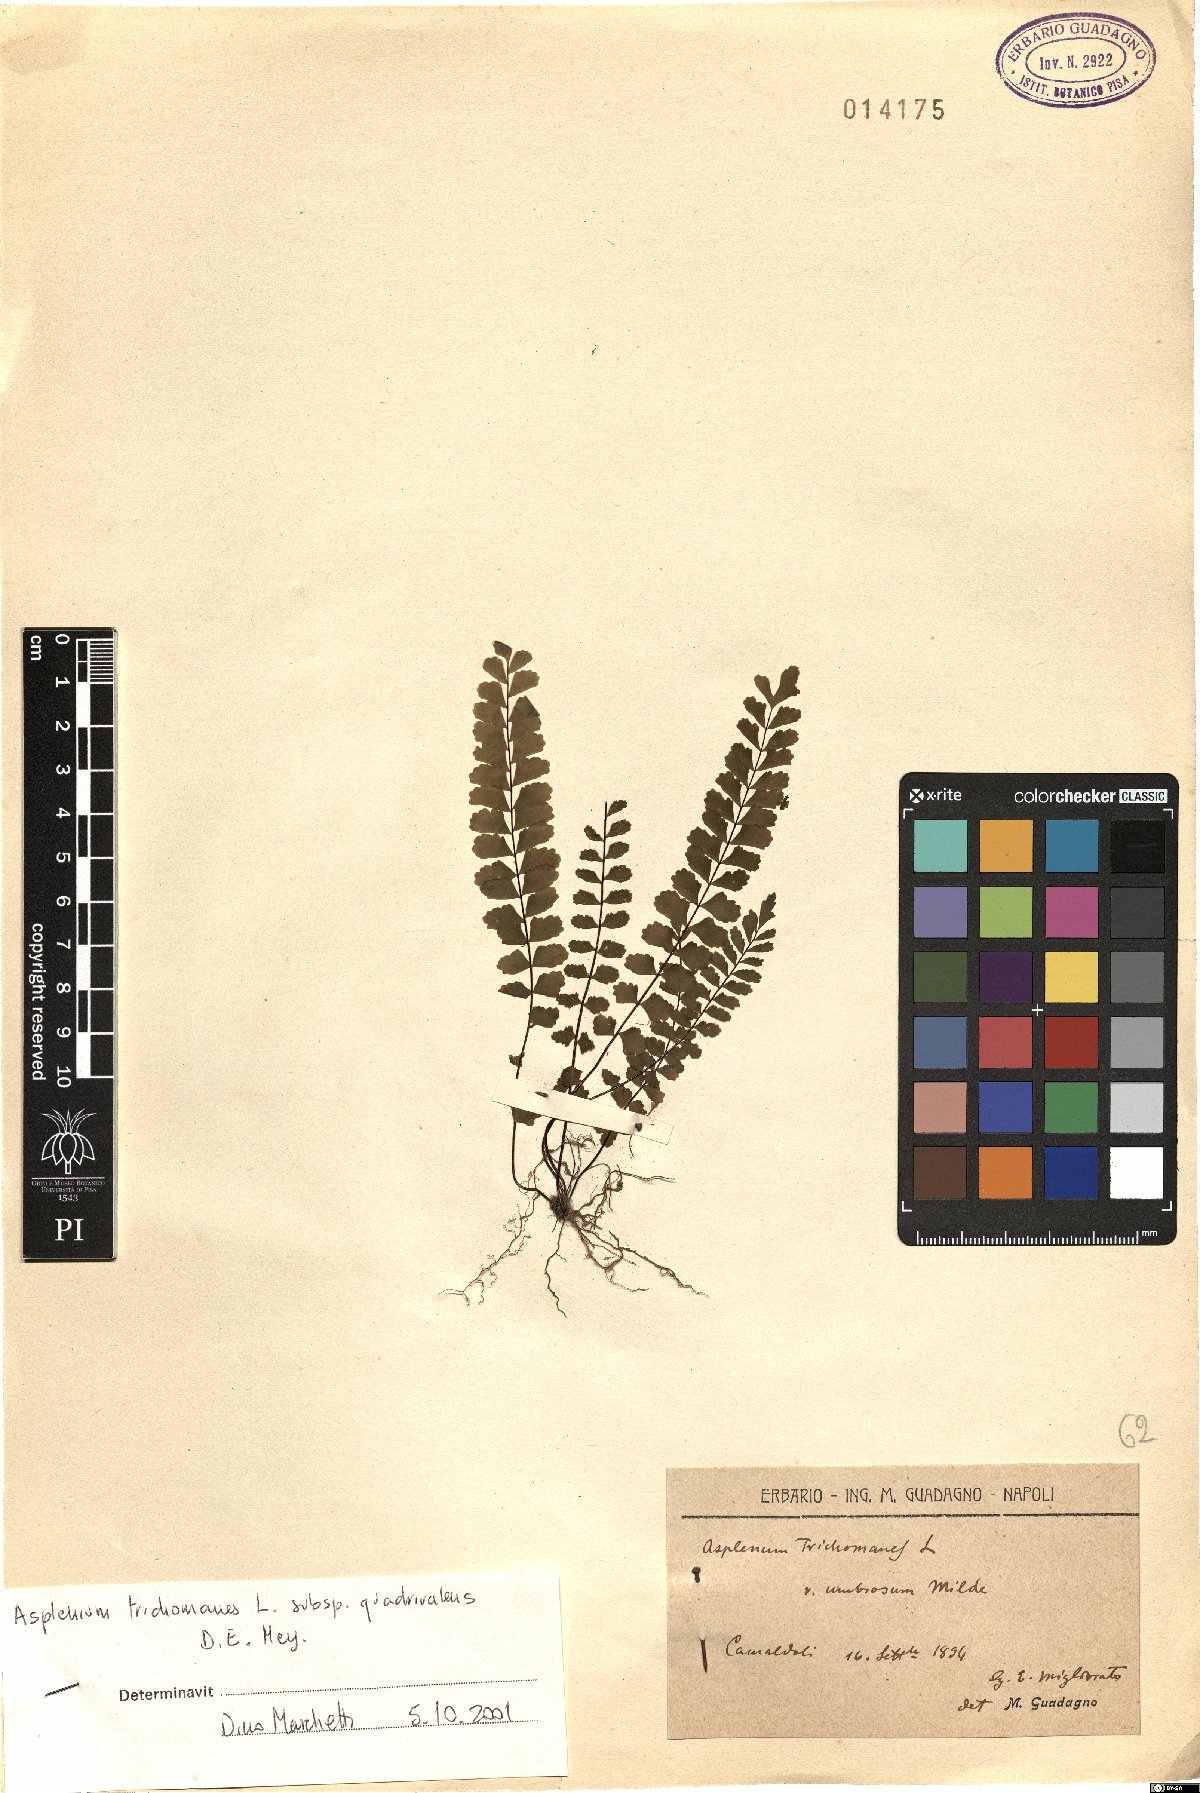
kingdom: Plantae
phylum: Tracheophyta
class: Polypodiopsida
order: Polypodiales
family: Aspleniaceae
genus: Asplenium
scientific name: Asplenium quadrivalens
